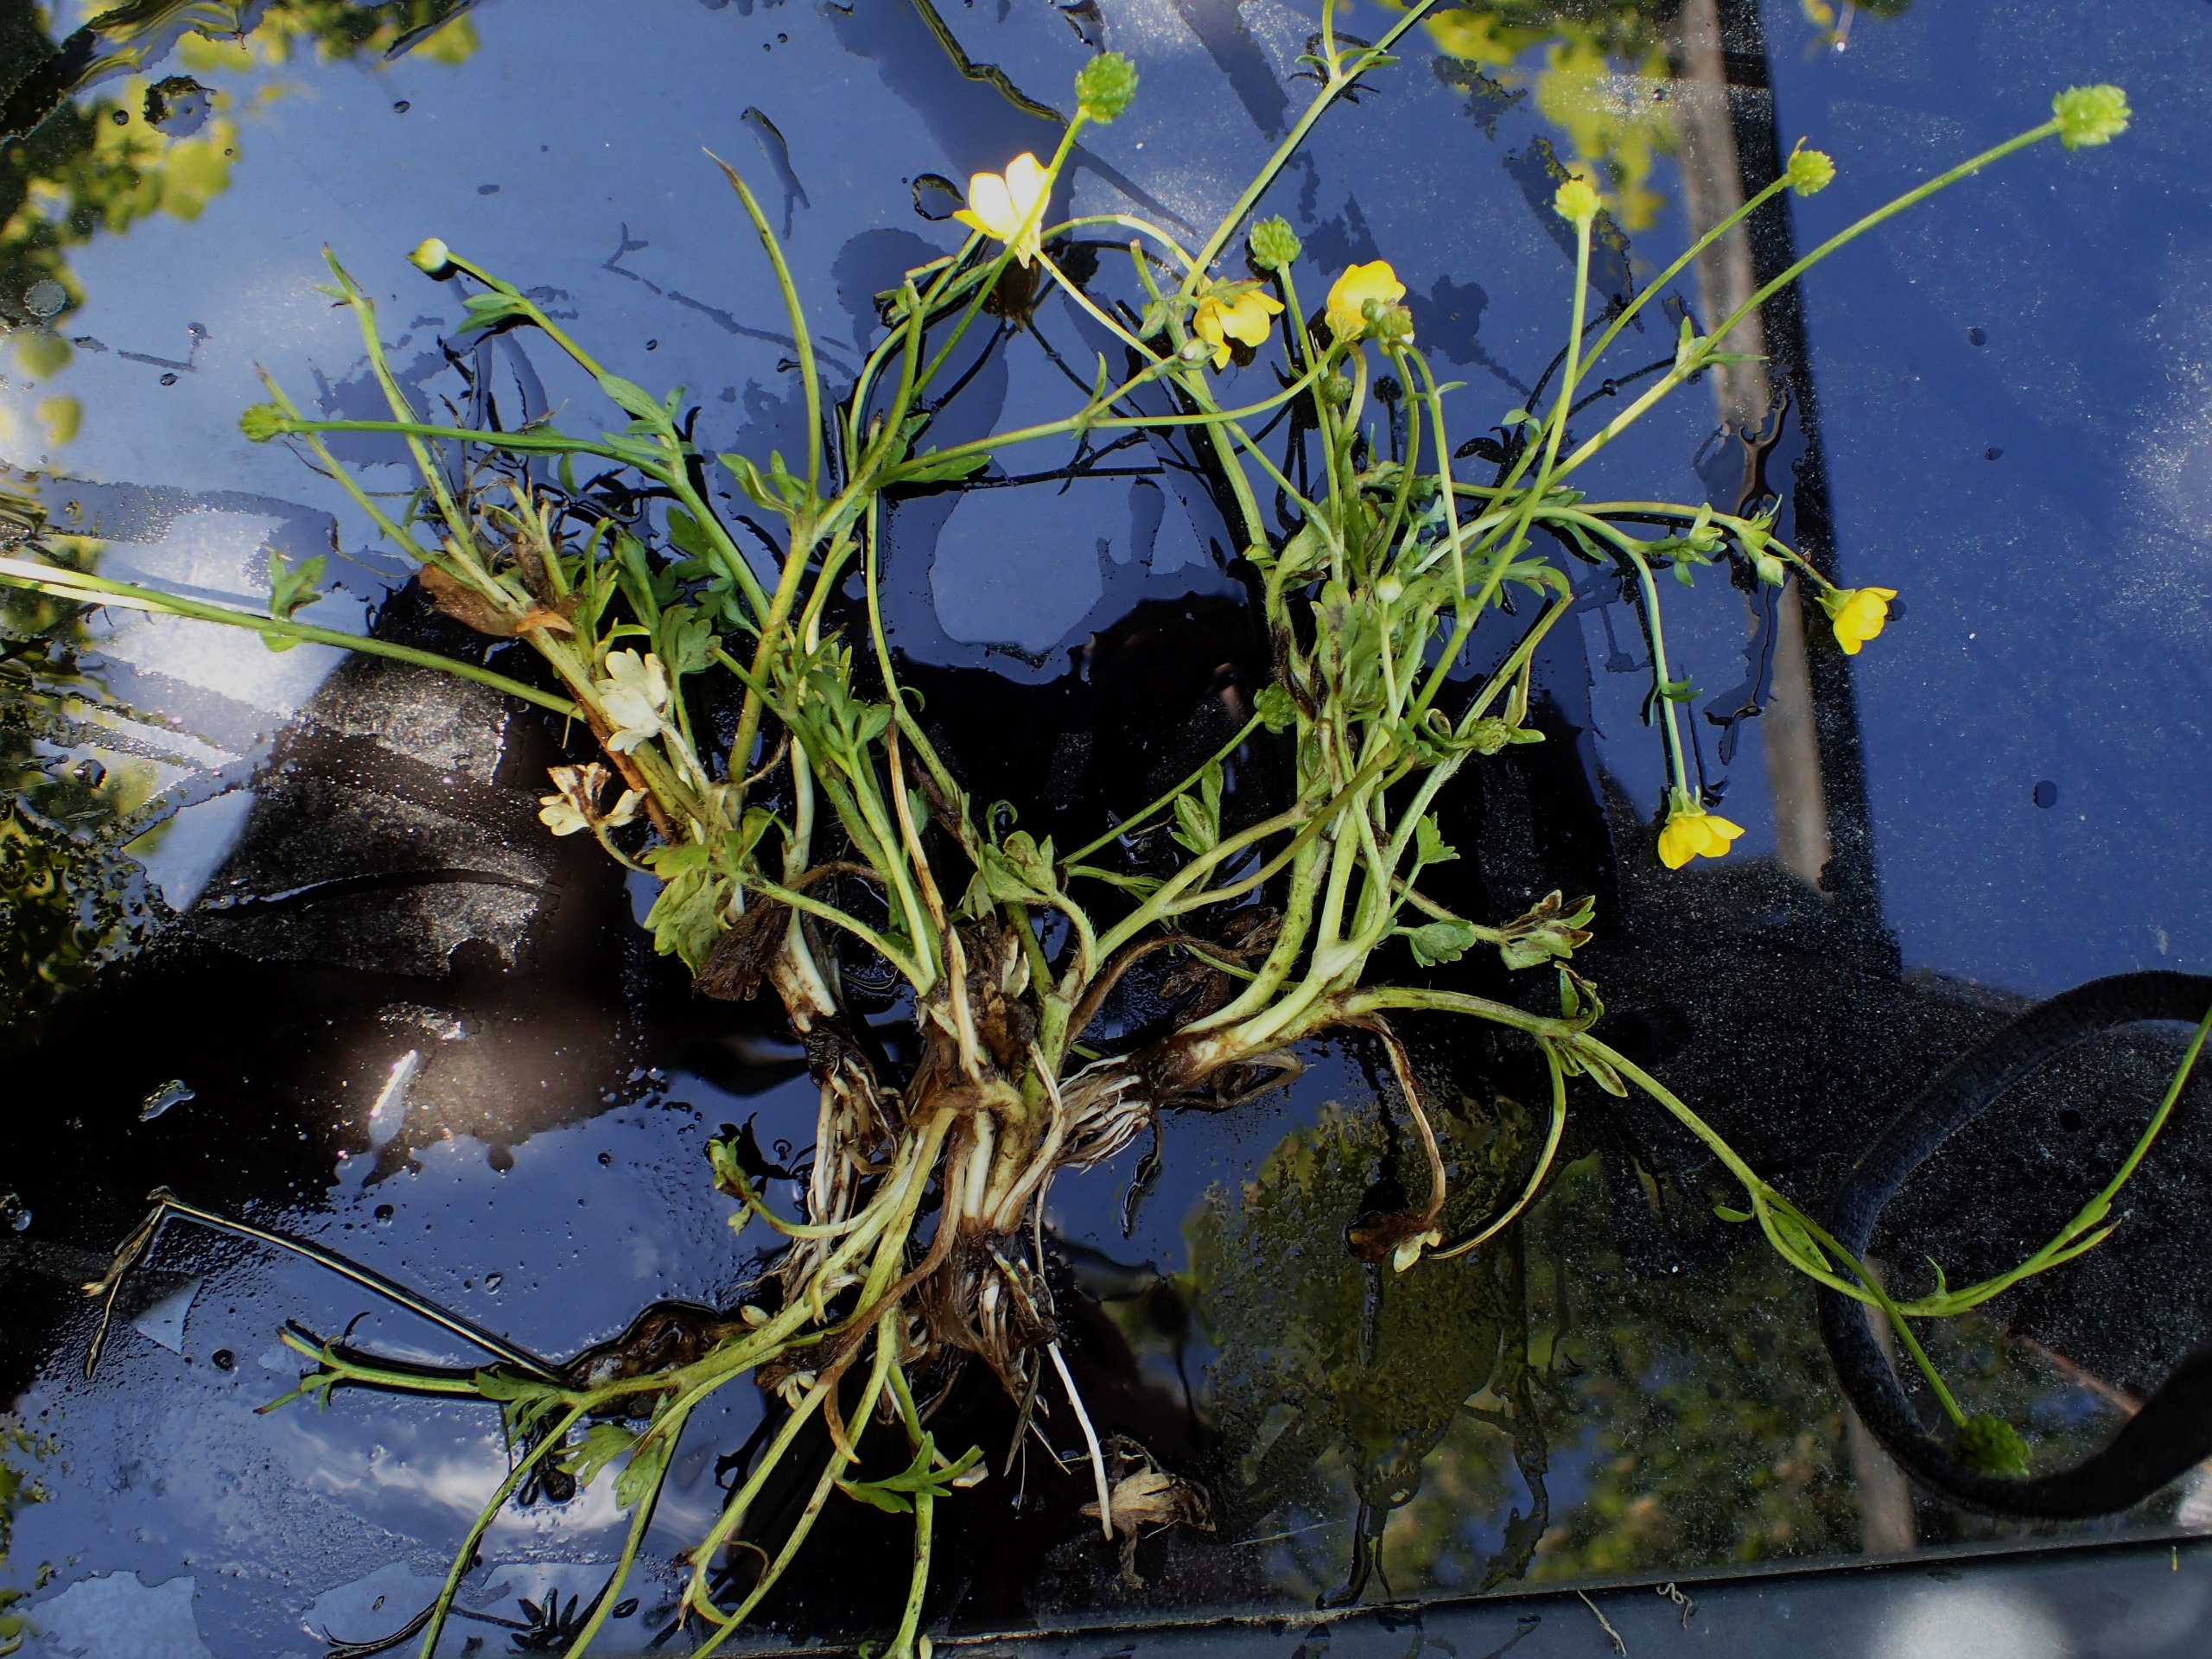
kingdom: Plantae
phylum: Tracheophyta
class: Magnoliopsida
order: Ranunculales
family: Ranunculaceae
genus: Ranunculus
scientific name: Ranunculus sardous
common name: Stivhåret ranunkel
